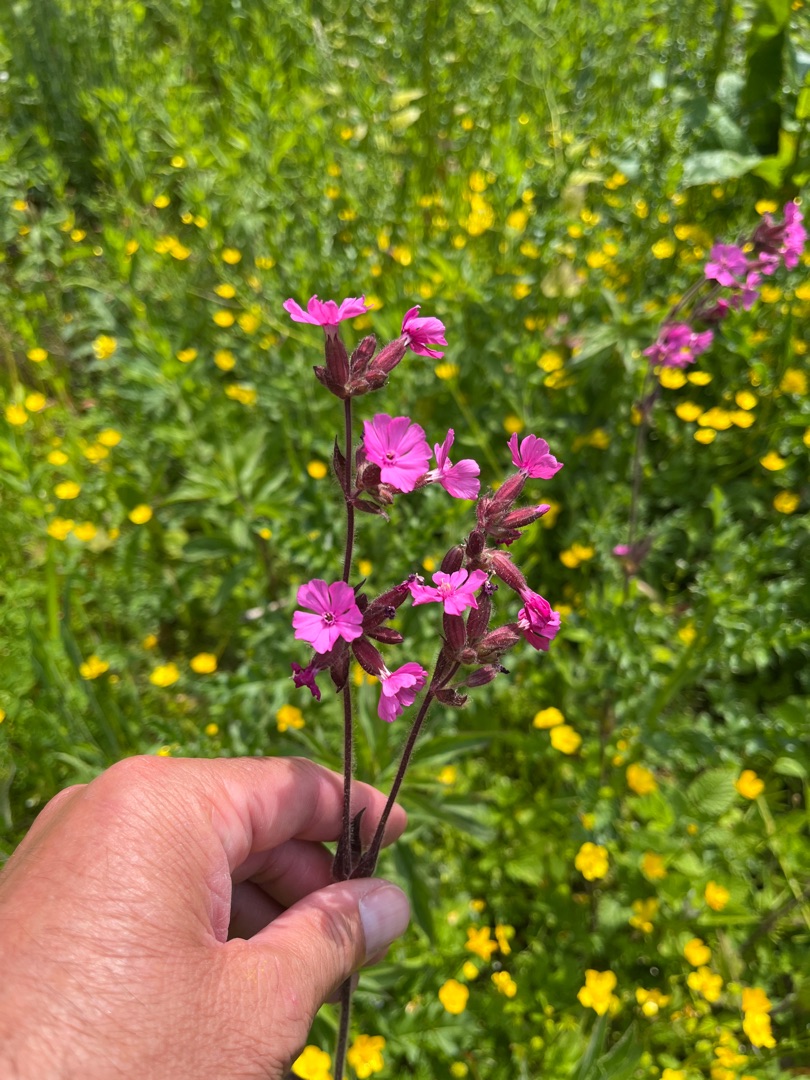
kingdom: Plantae
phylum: Tracheophyta
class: Magnoliopsida
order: Caryophyllales
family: Caryophyllaceae
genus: Silene
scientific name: Silene dioica
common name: Dagpragtstjerne
